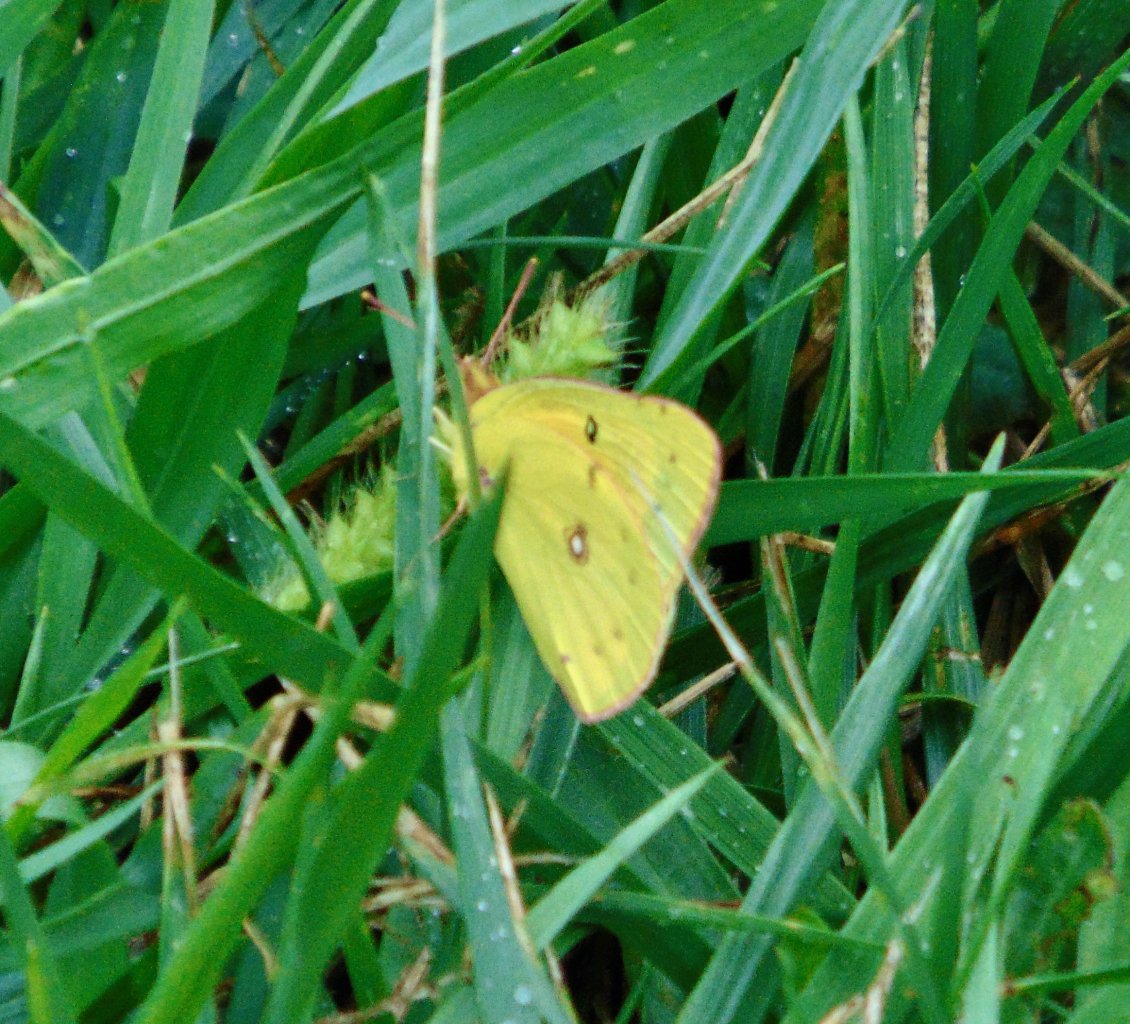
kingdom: Animalia
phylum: Arthropoda
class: Insecta
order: Lepidoptera
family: Pieridae
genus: Colias
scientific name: Colias eurytheme
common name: Orange Sulphur
